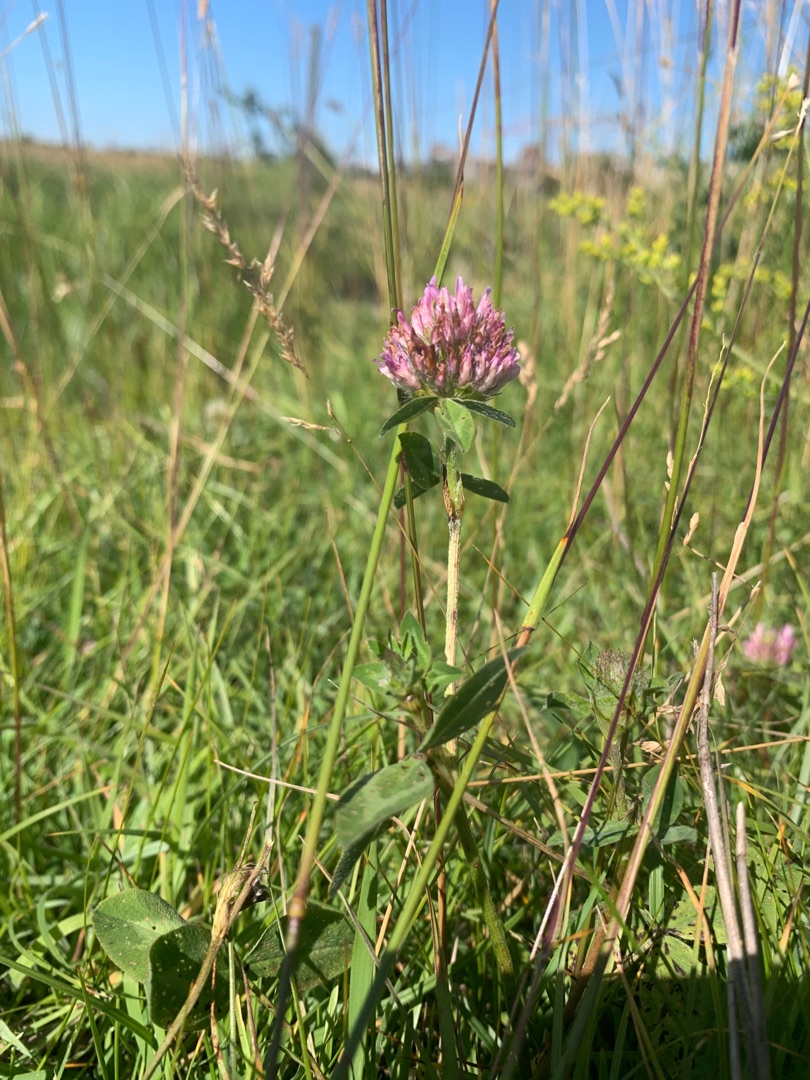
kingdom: Plantae
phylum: Tracheophyta
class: Magnoliopsida
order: Fabales
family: Fabaceae
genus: Trifolium
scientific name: Trifolium pratense
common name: Rød-kløver
